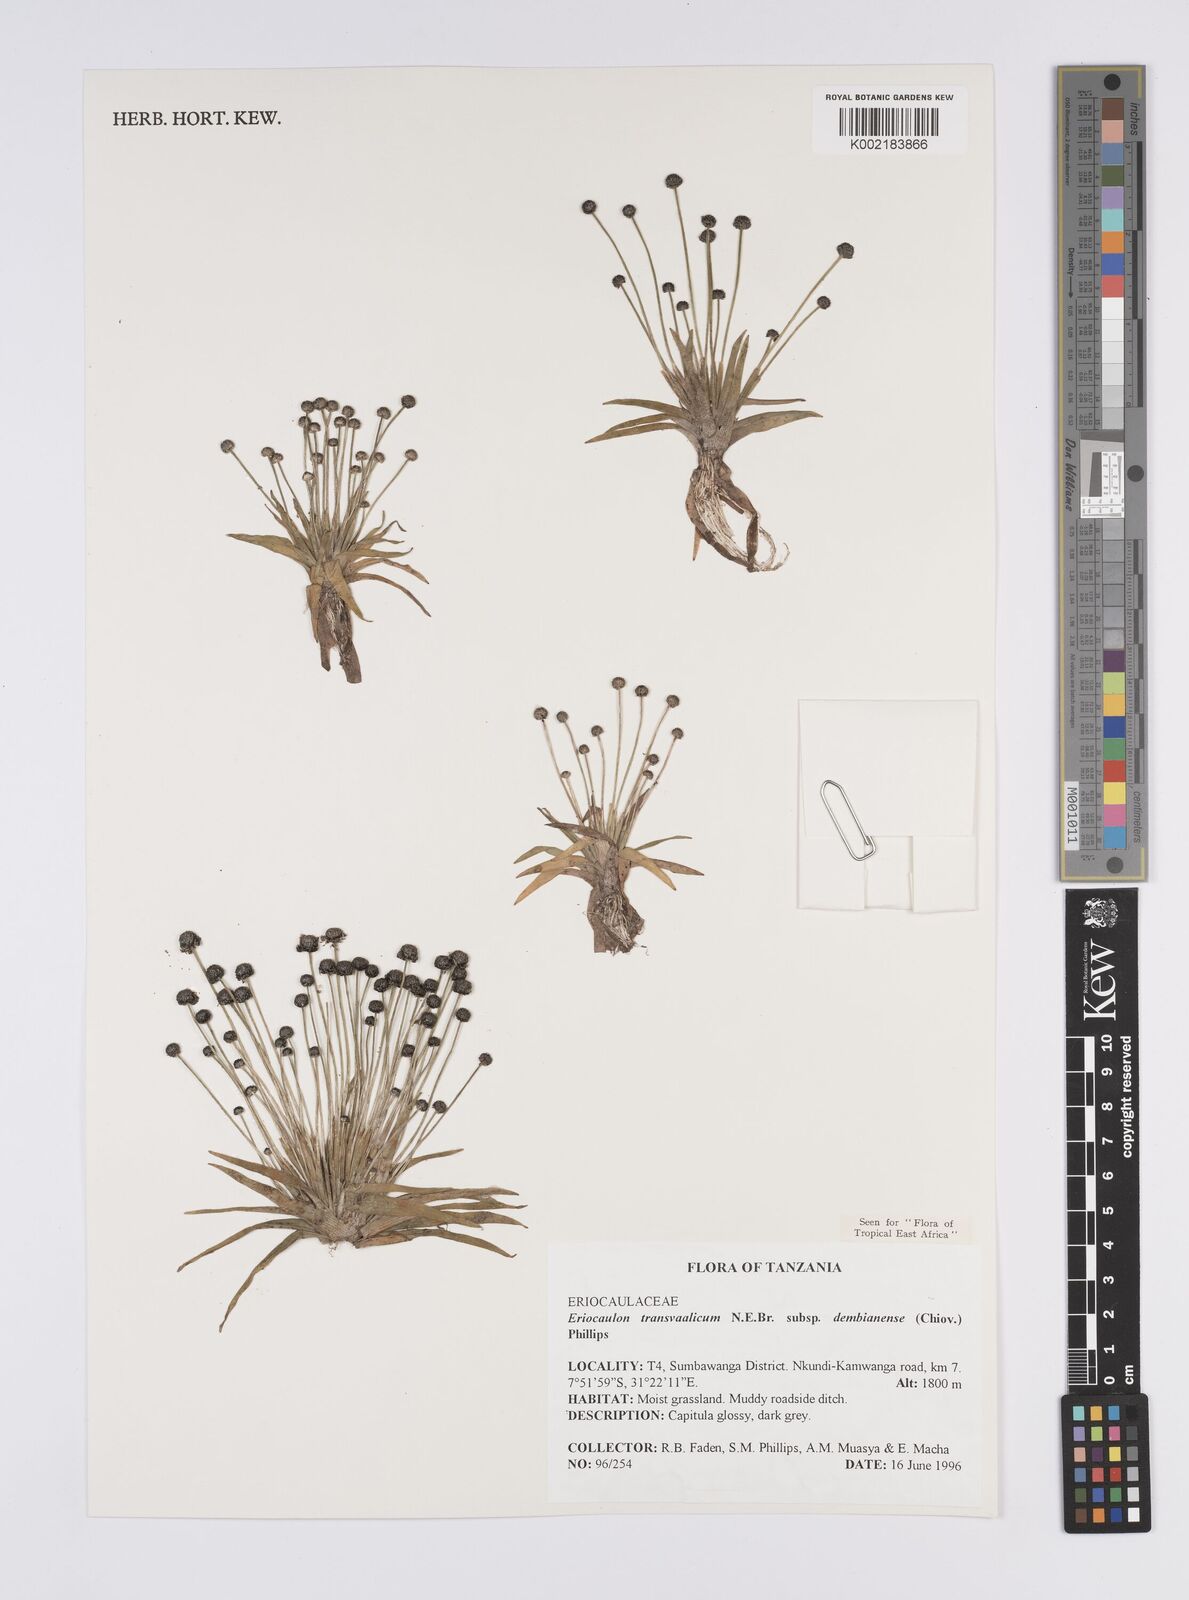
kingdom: Plantae
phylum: Tracheophyta
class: Liliopsida
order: Poales
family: Eriocaulaceae
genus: Eriocaulon
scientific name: Eriocaulon transvaalicum
